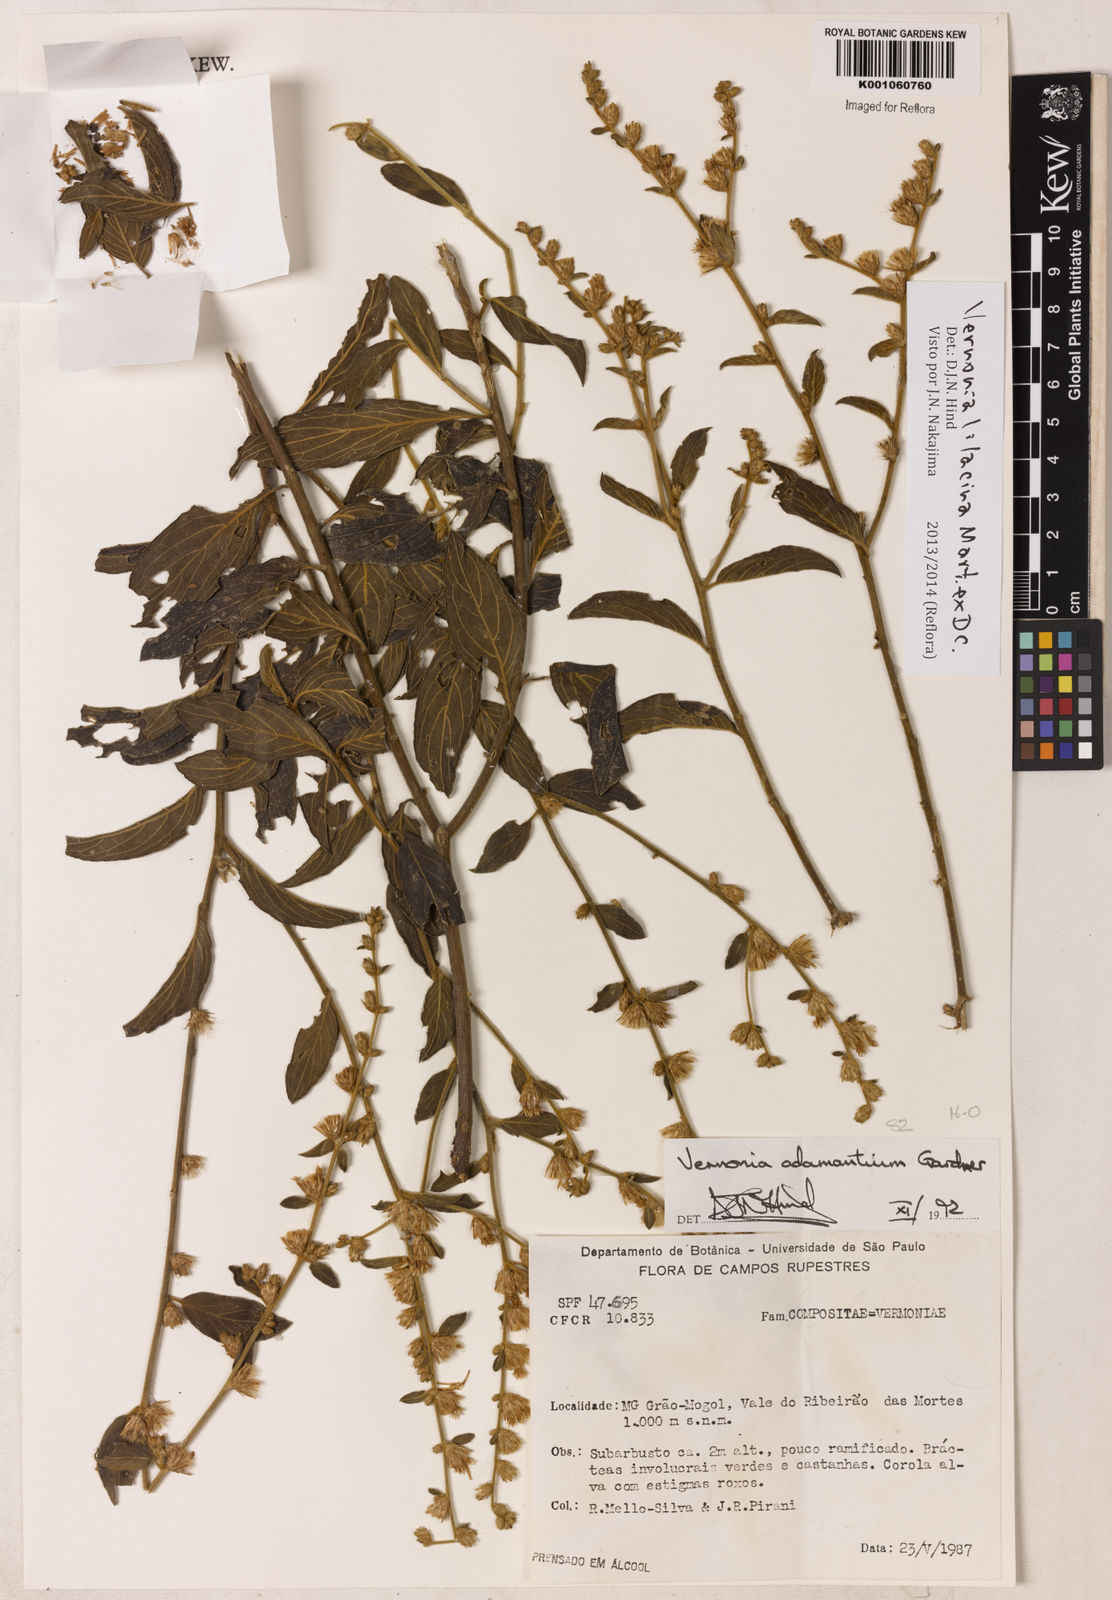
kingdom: Plantae
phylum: Tracheophyta
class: Magnoliopsida
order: Asterales
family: Asteraceae
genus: Lepidaploa
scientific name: Lepidaploa lilacina
